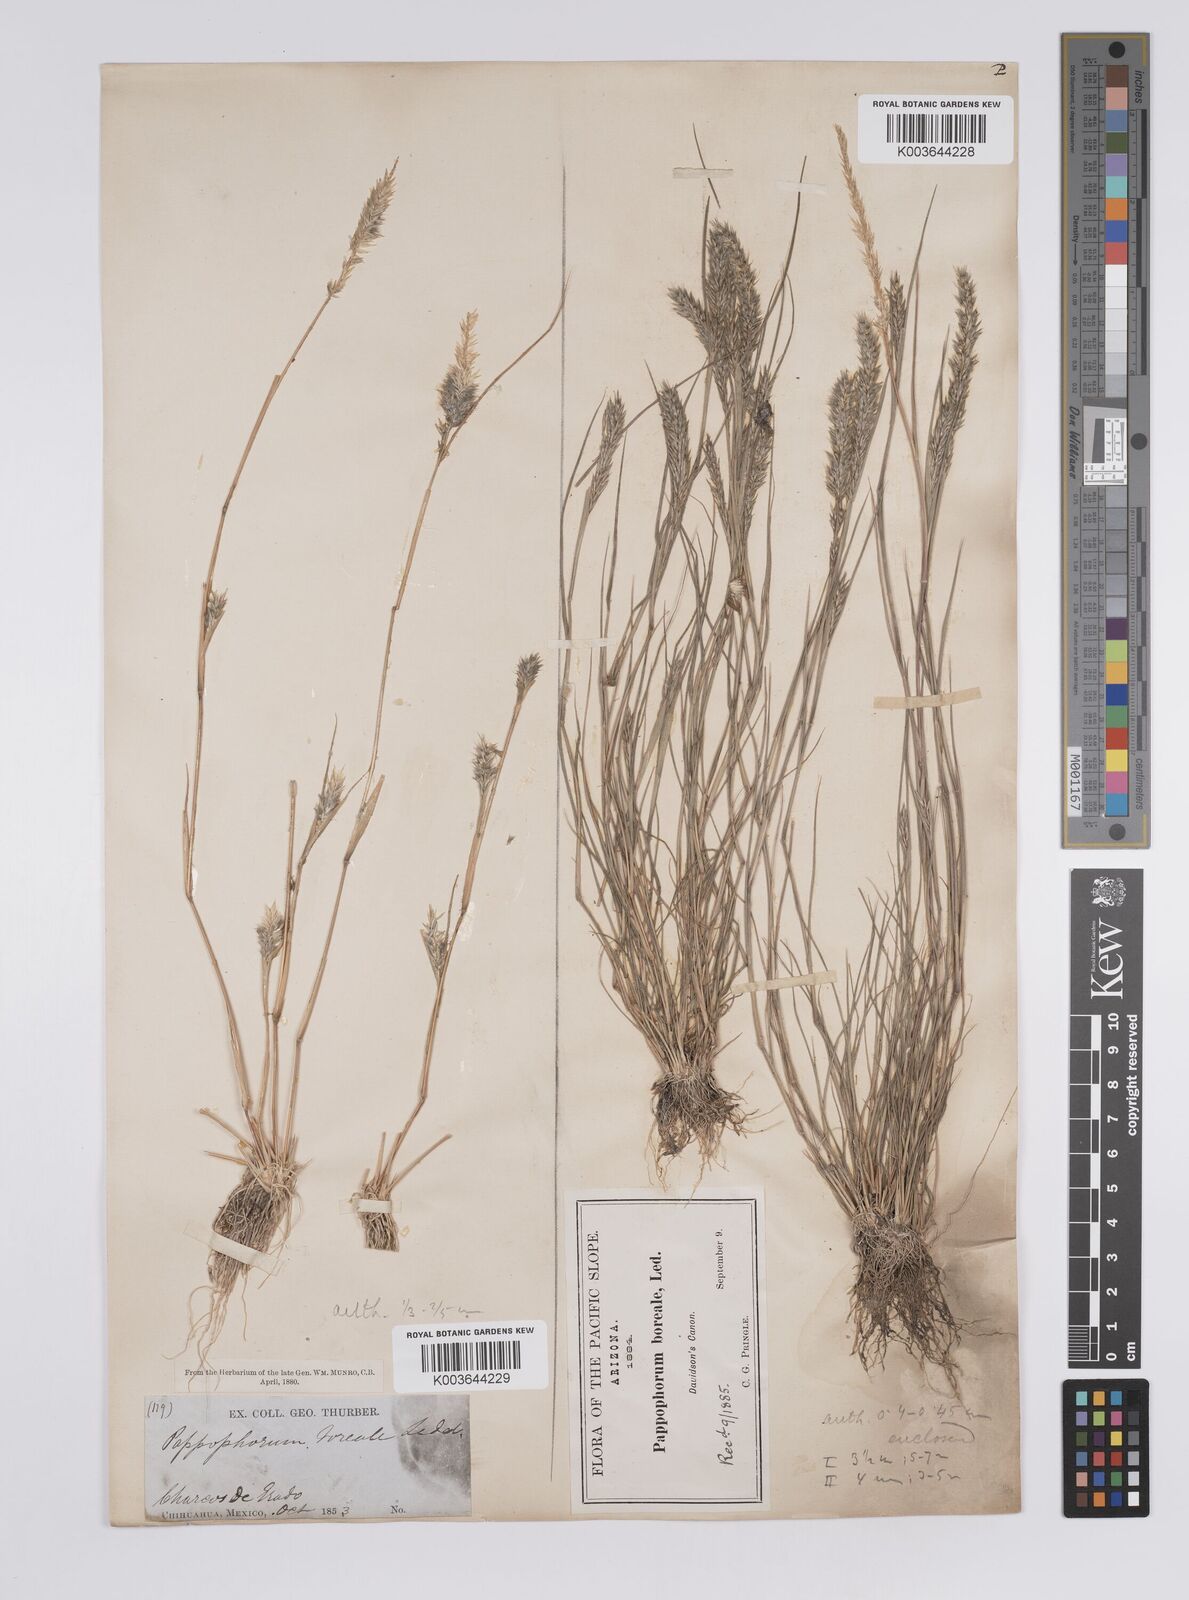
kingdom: Plantae
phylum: Tracheophyta
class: Liliopsida
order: Poales
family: Poaceae
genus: Enneapogon
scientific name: Enneapogon desvauxii
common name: Feather pappus grass
